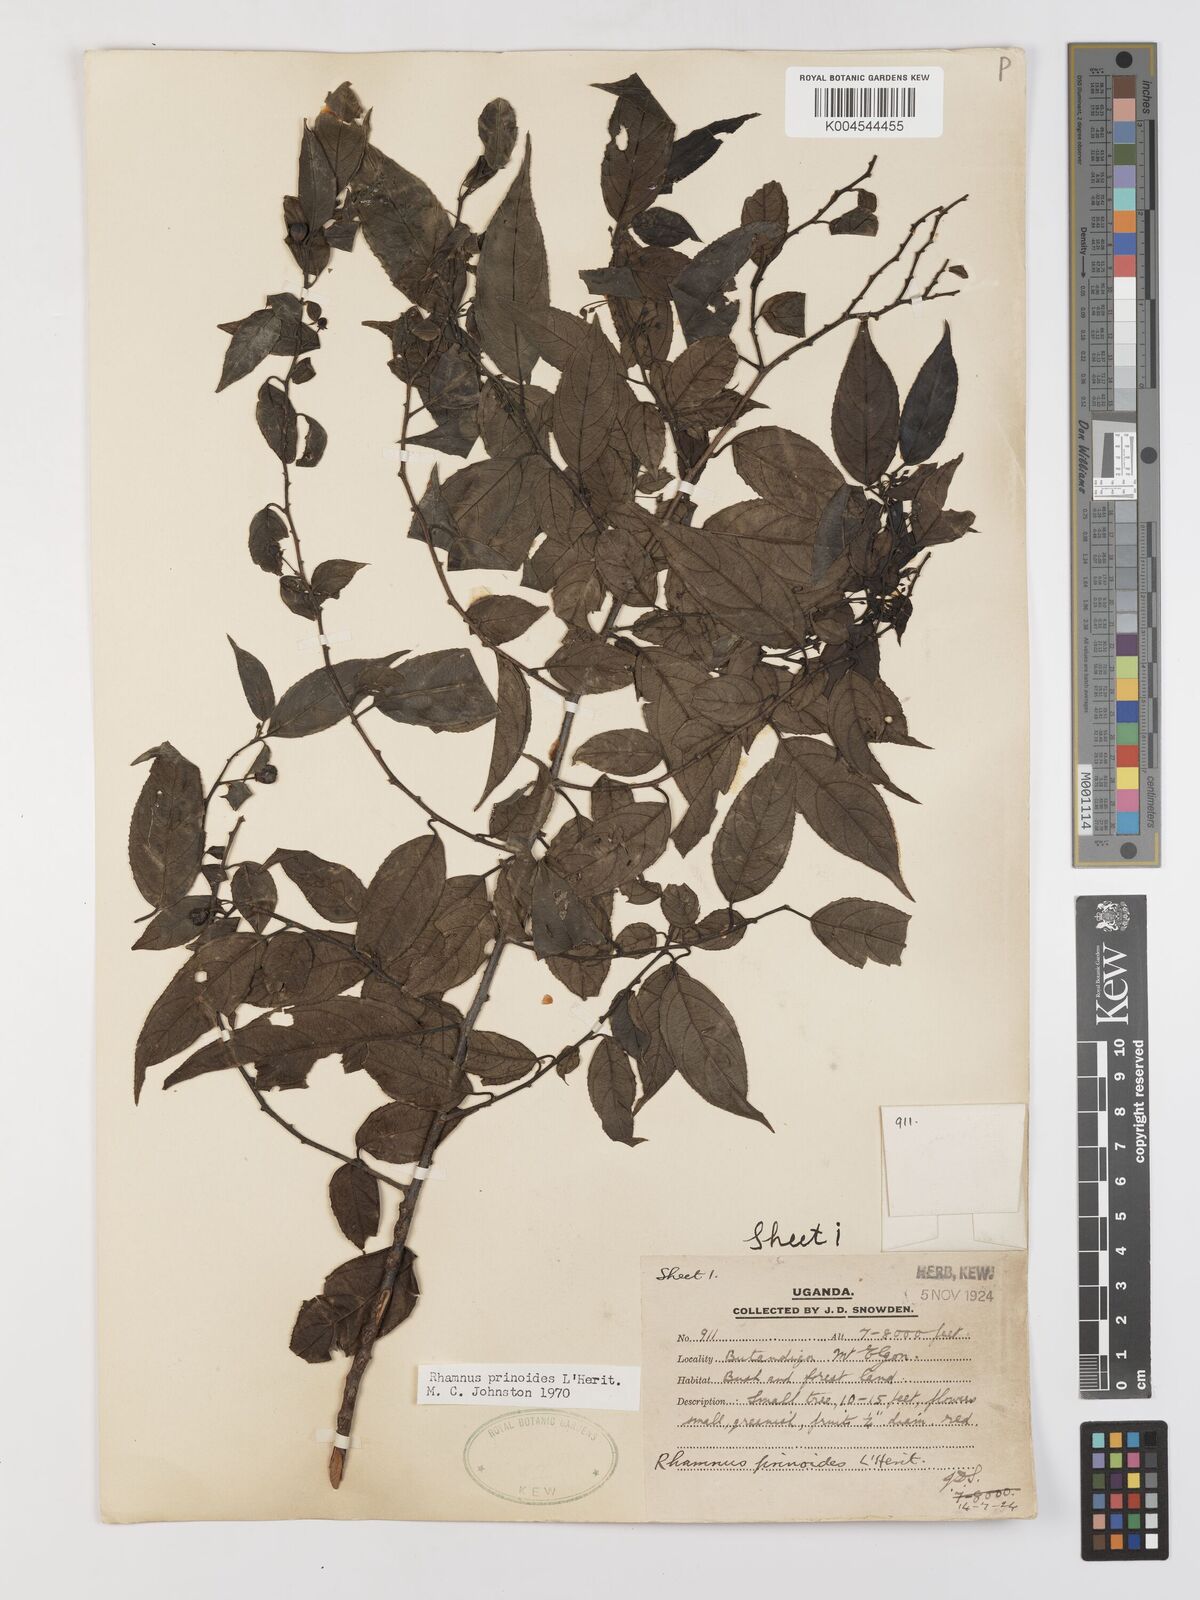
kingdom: Plantae
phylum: Tracheophyta
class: Magnoliopsida
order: Rosales
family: Rhamnaceae
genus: Rhamnus
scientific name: Rhamnus prinoides
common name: Dogwood
